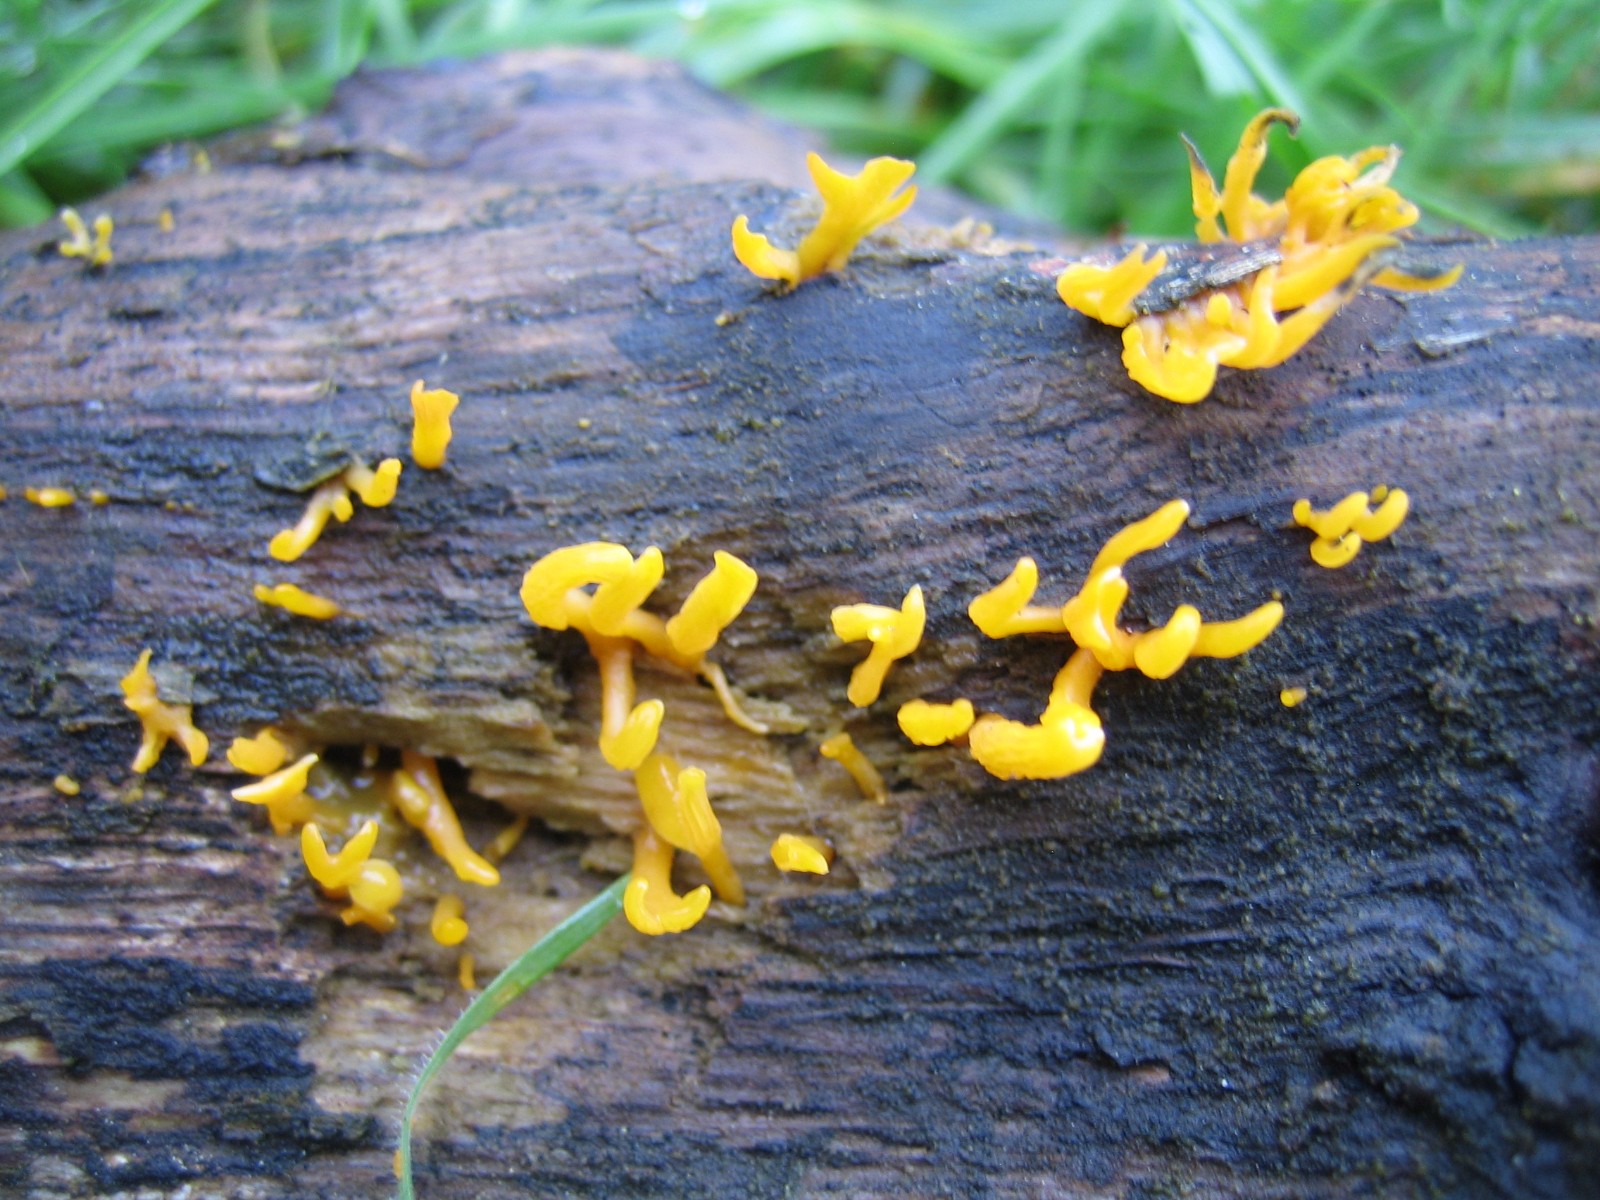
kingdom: Fungi
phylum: Basidiomycota
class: Dacrymycetes
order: Dacrymycetales
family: Dacrymycetaceae
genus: Calocera
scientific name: Calocera cornea
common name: liden guldgaffel
